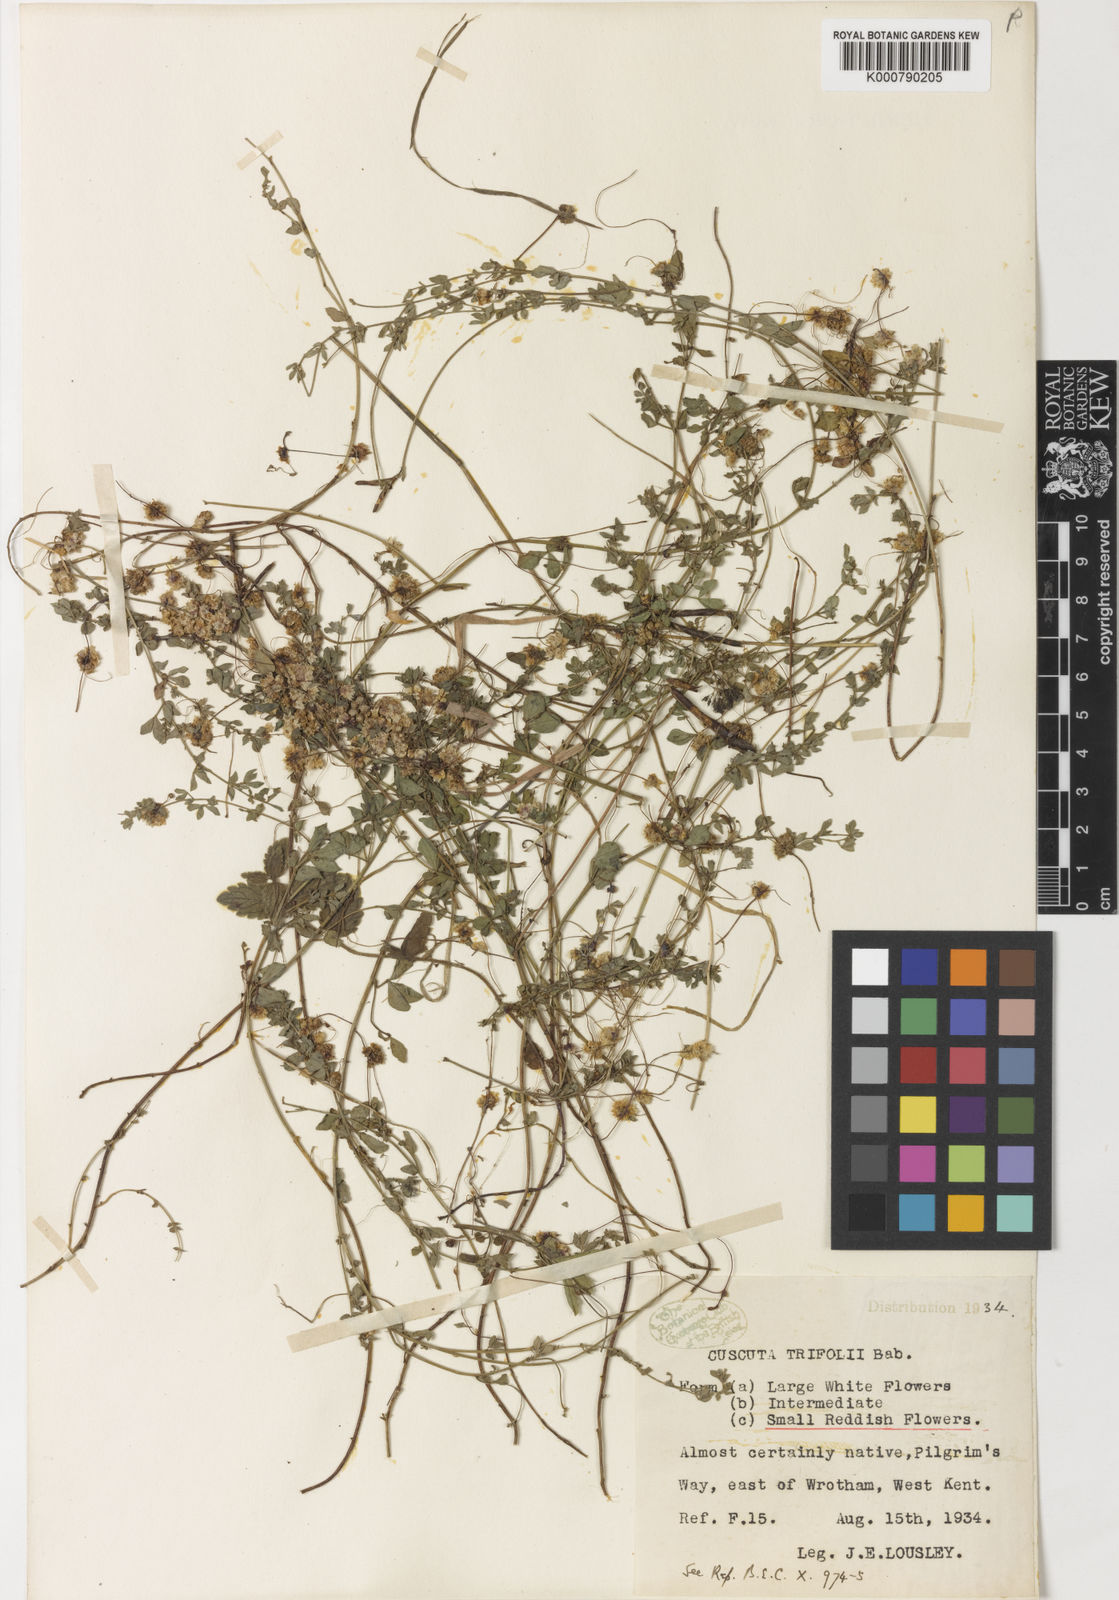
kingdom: Plantae
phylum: Tracheophyta
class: Magnoliopsida
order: Solanales
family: Convolvulaceae
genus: Cuscuta
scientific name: Cuscuta epithymum
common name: Clover dodder
